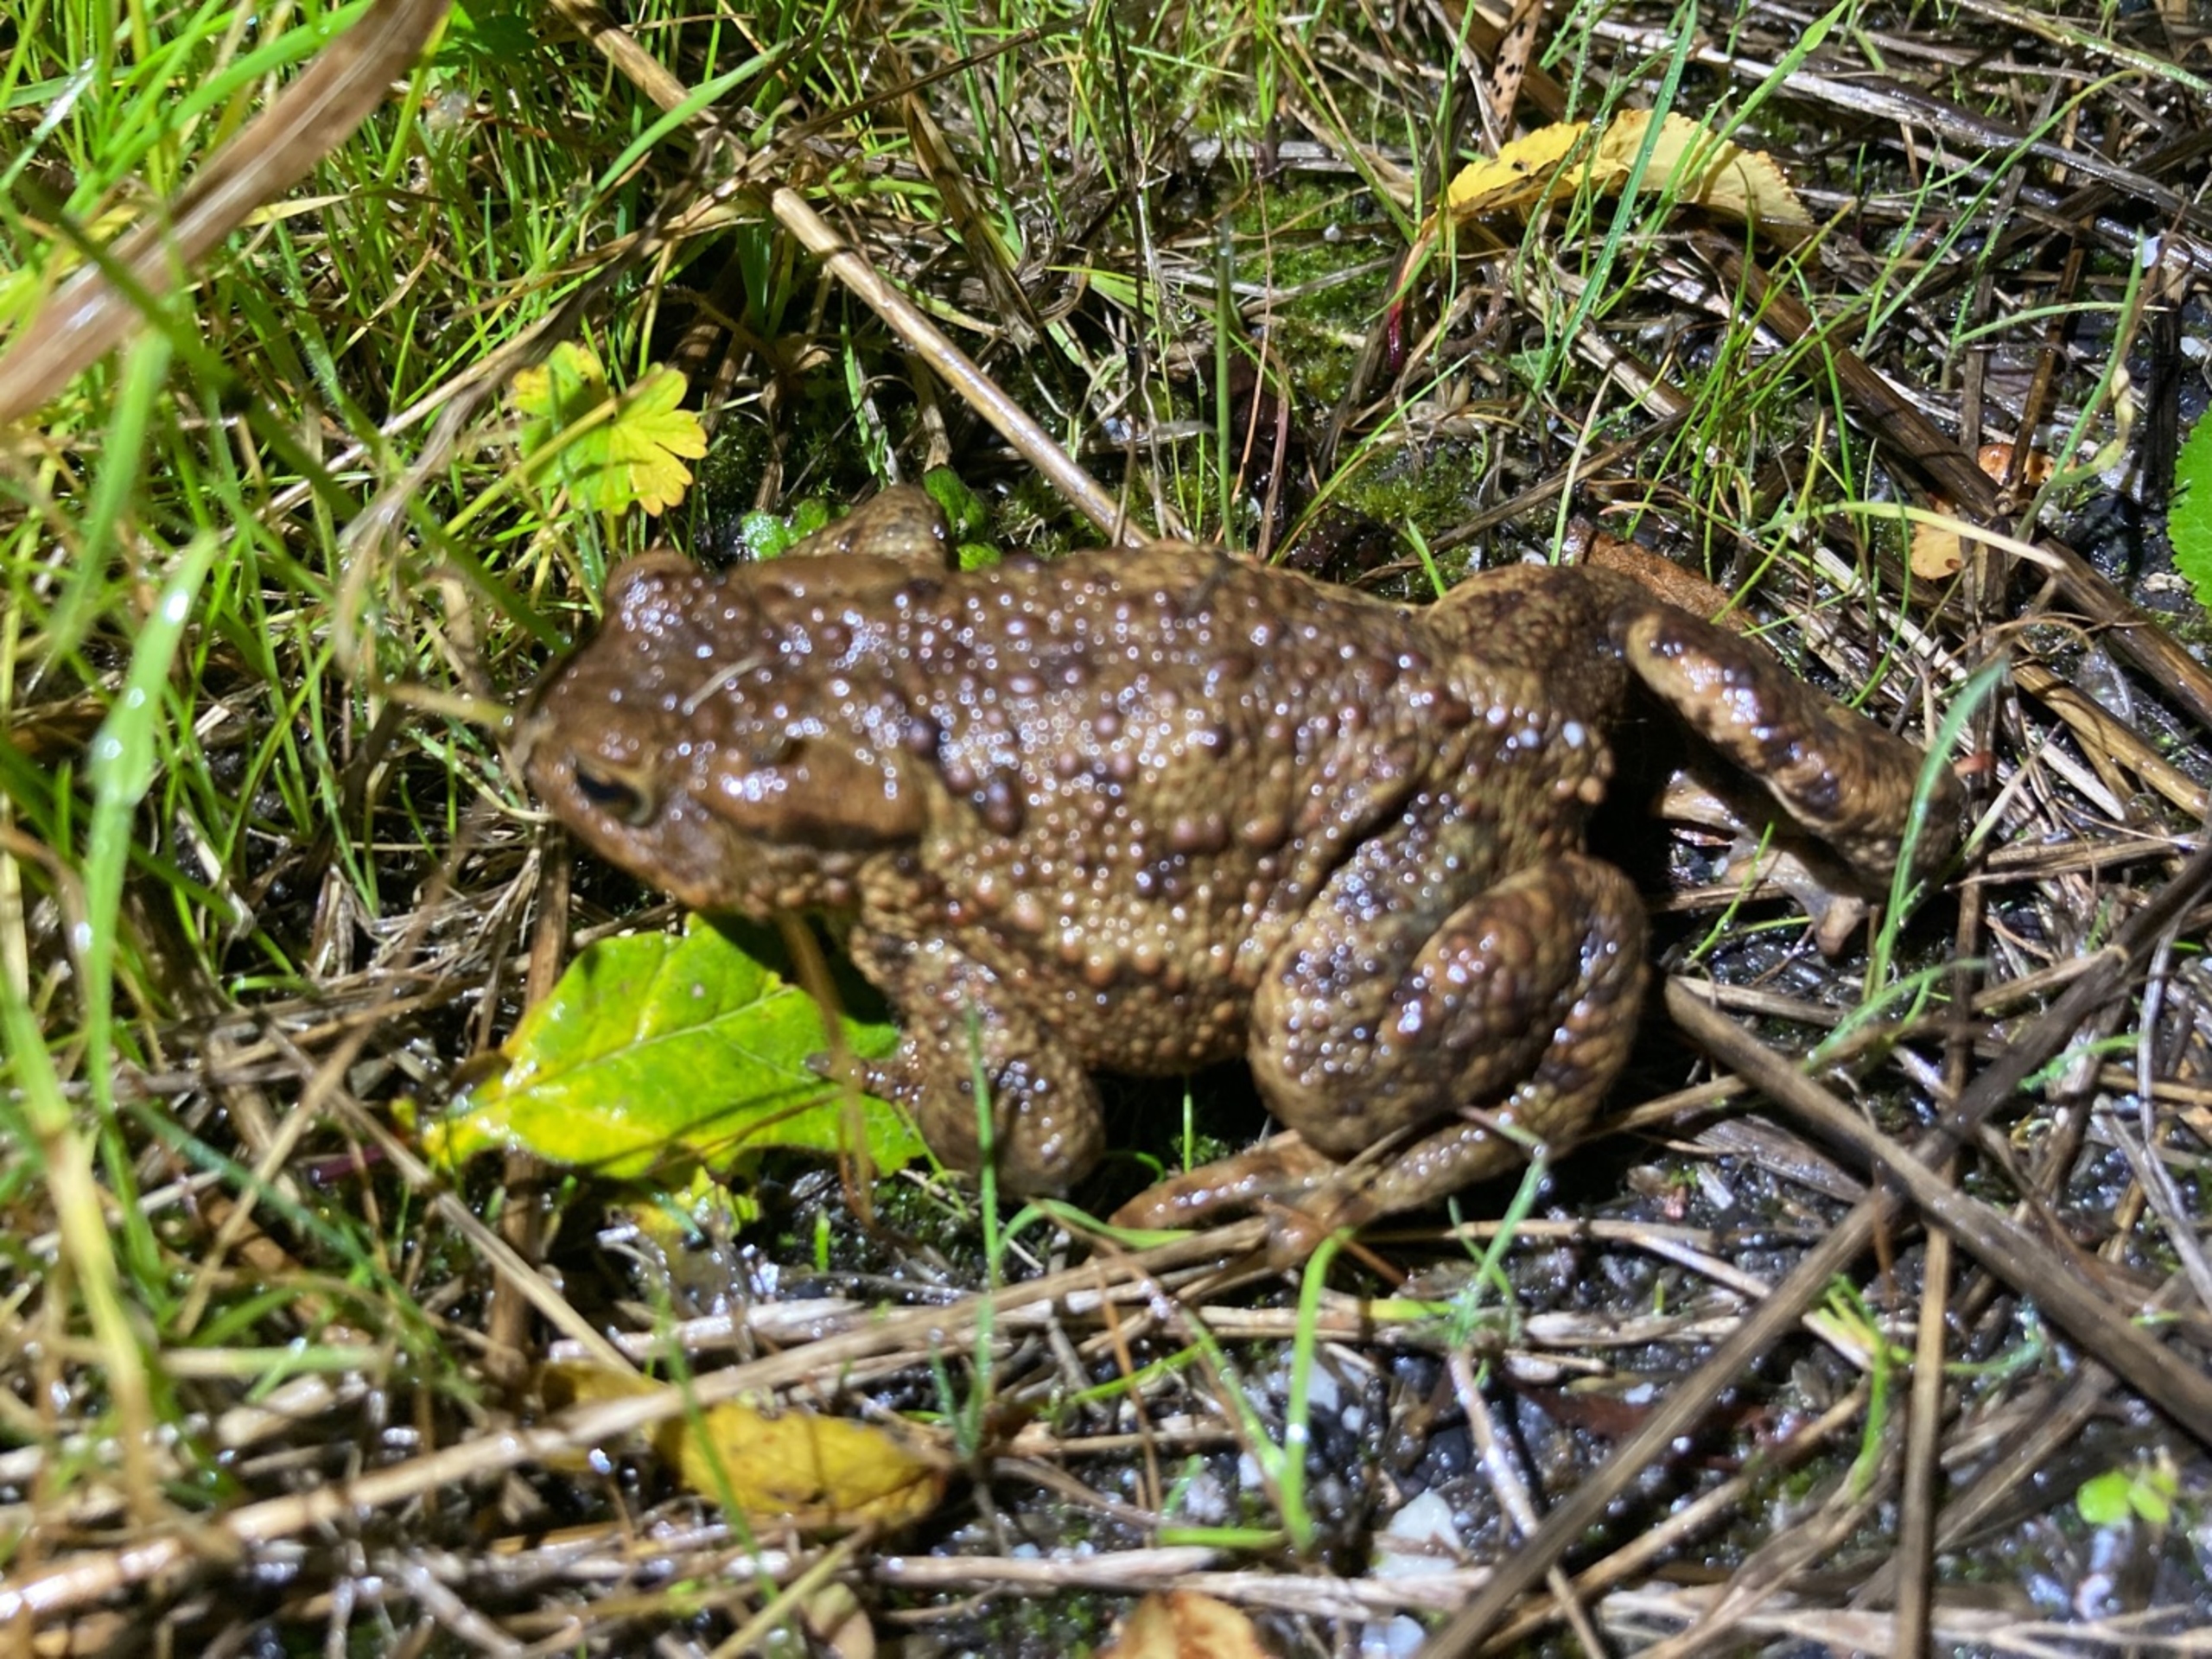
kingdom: Animalia
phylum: Chordata
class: Amphibia
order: Anura
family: Bufonidae
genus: Bufo
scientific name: Bufo bufo
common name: Skrubtudse
